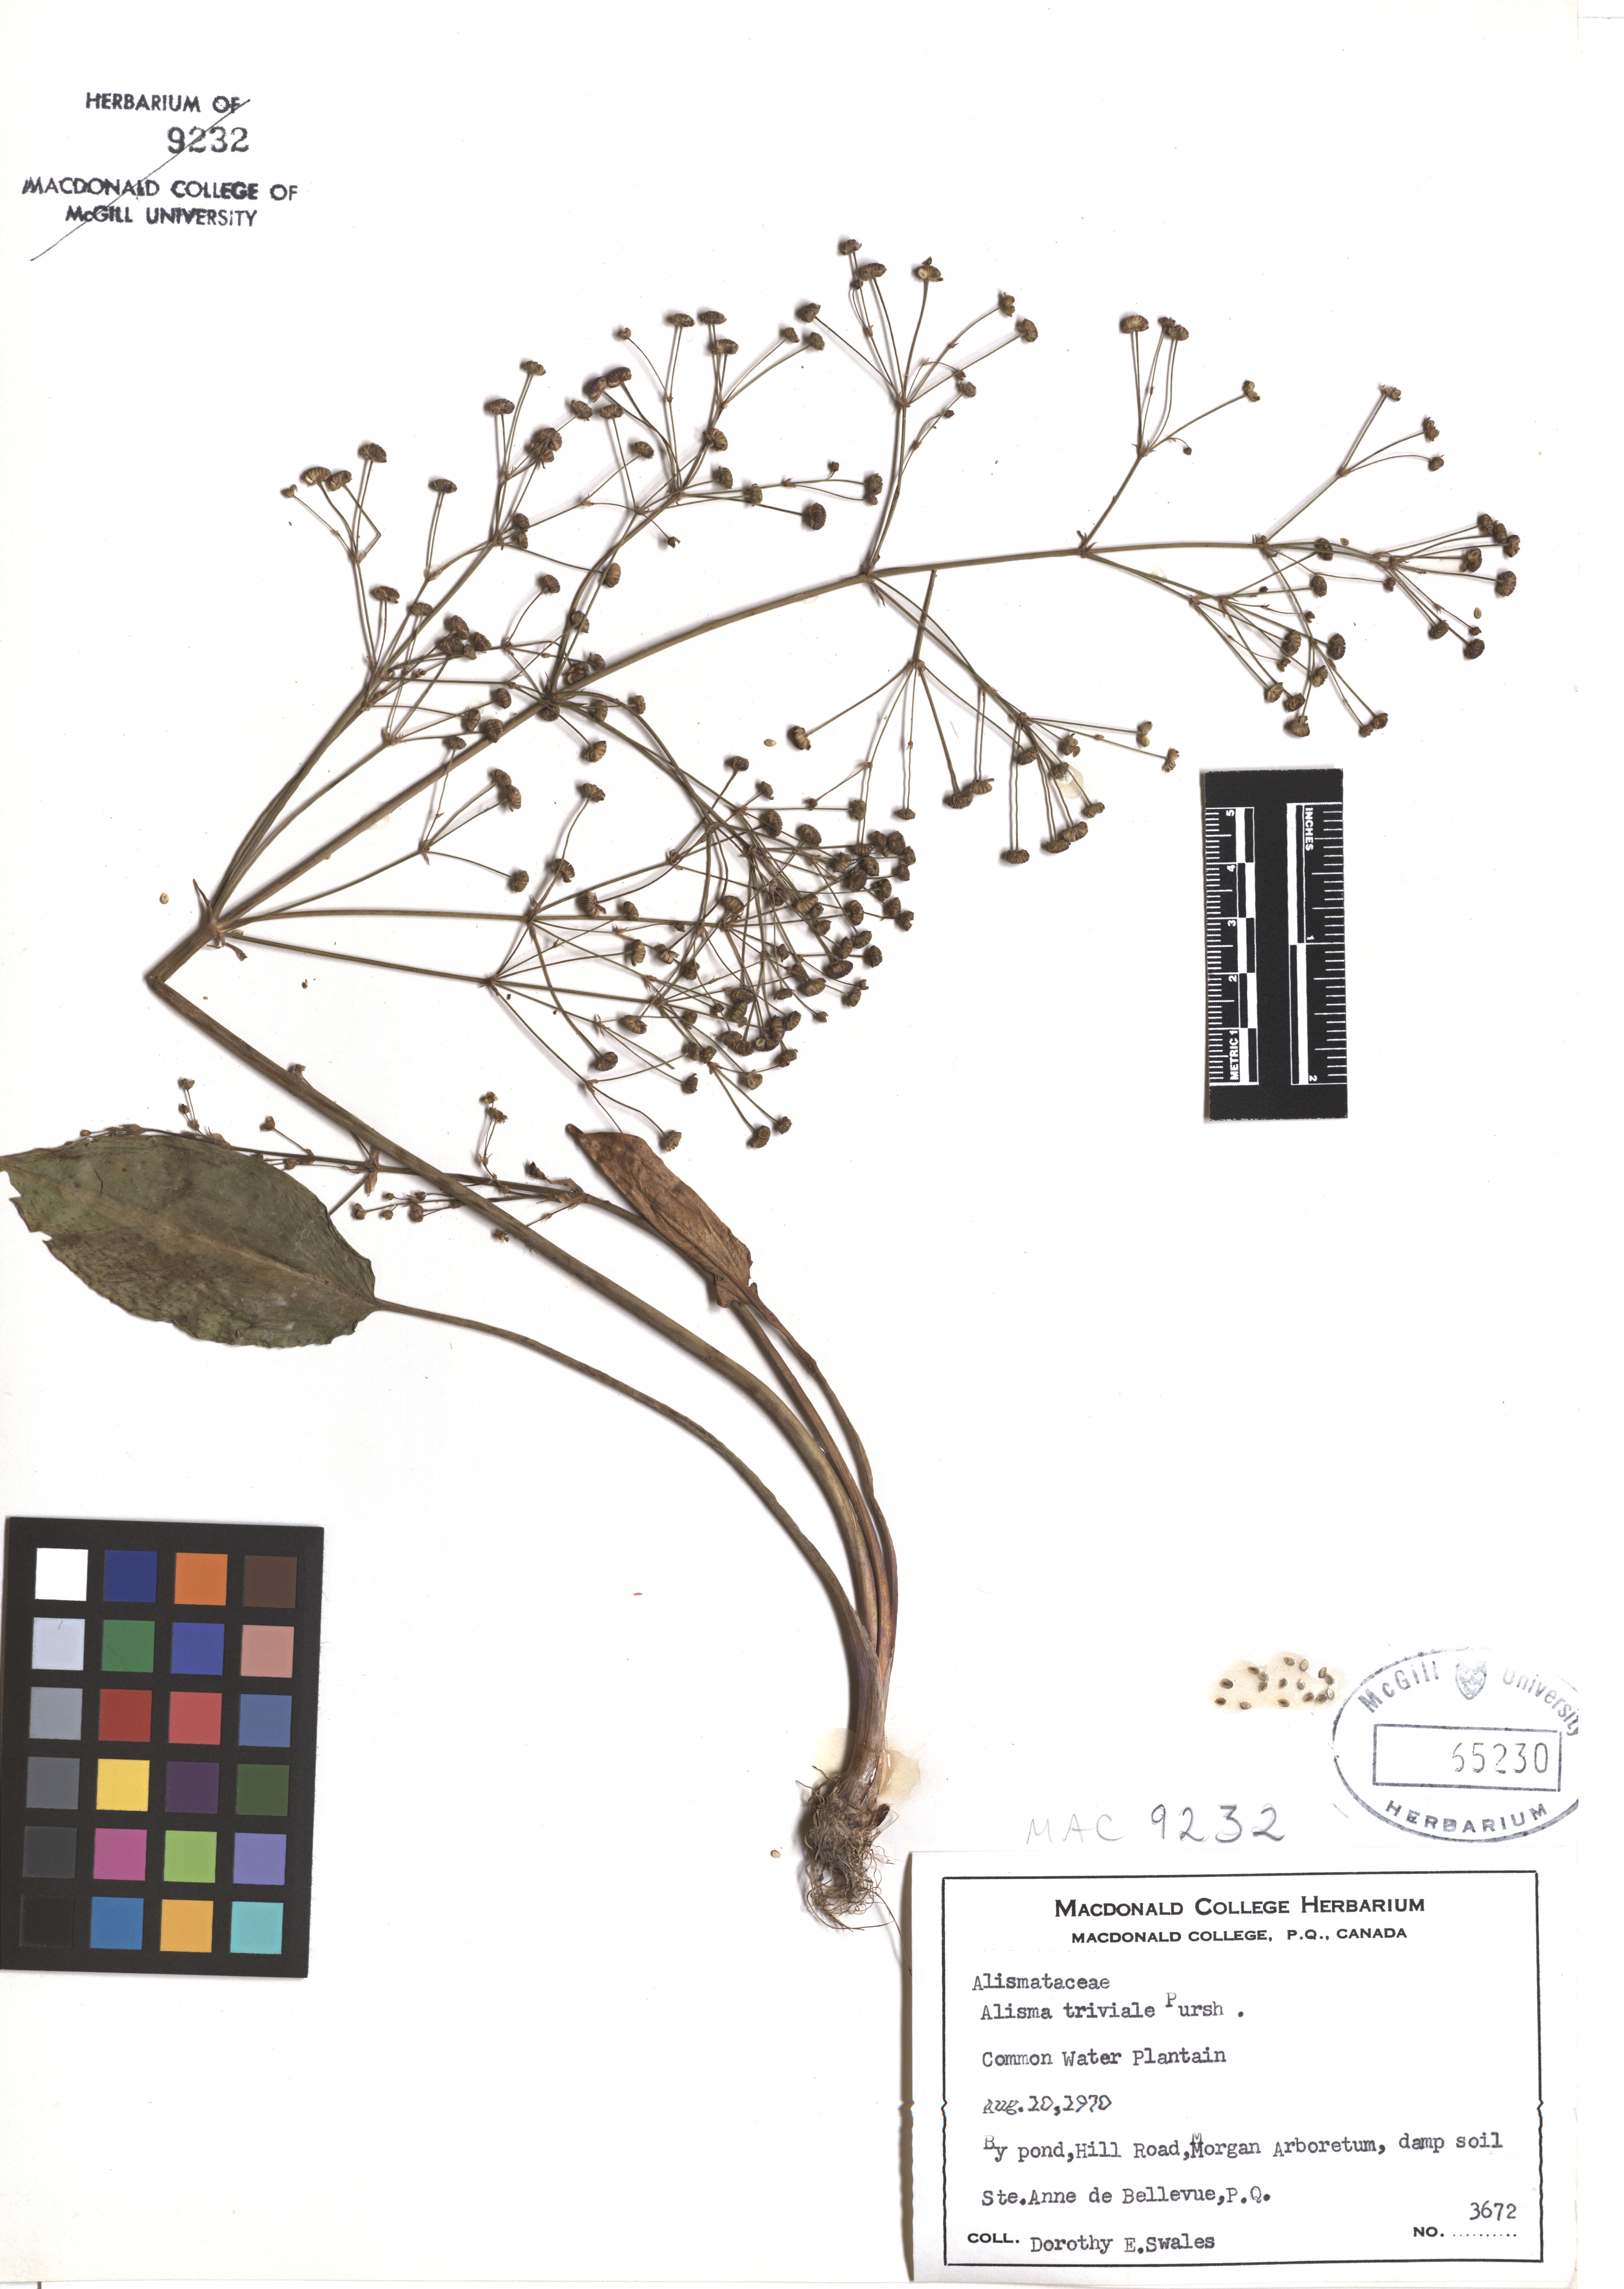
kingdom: Plantae
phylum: Tracheophyta
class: Liliopsida
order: Alismatales
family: Alismataceae
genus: Alisma
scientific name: Alisma triviale
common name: Northern water-plantain
